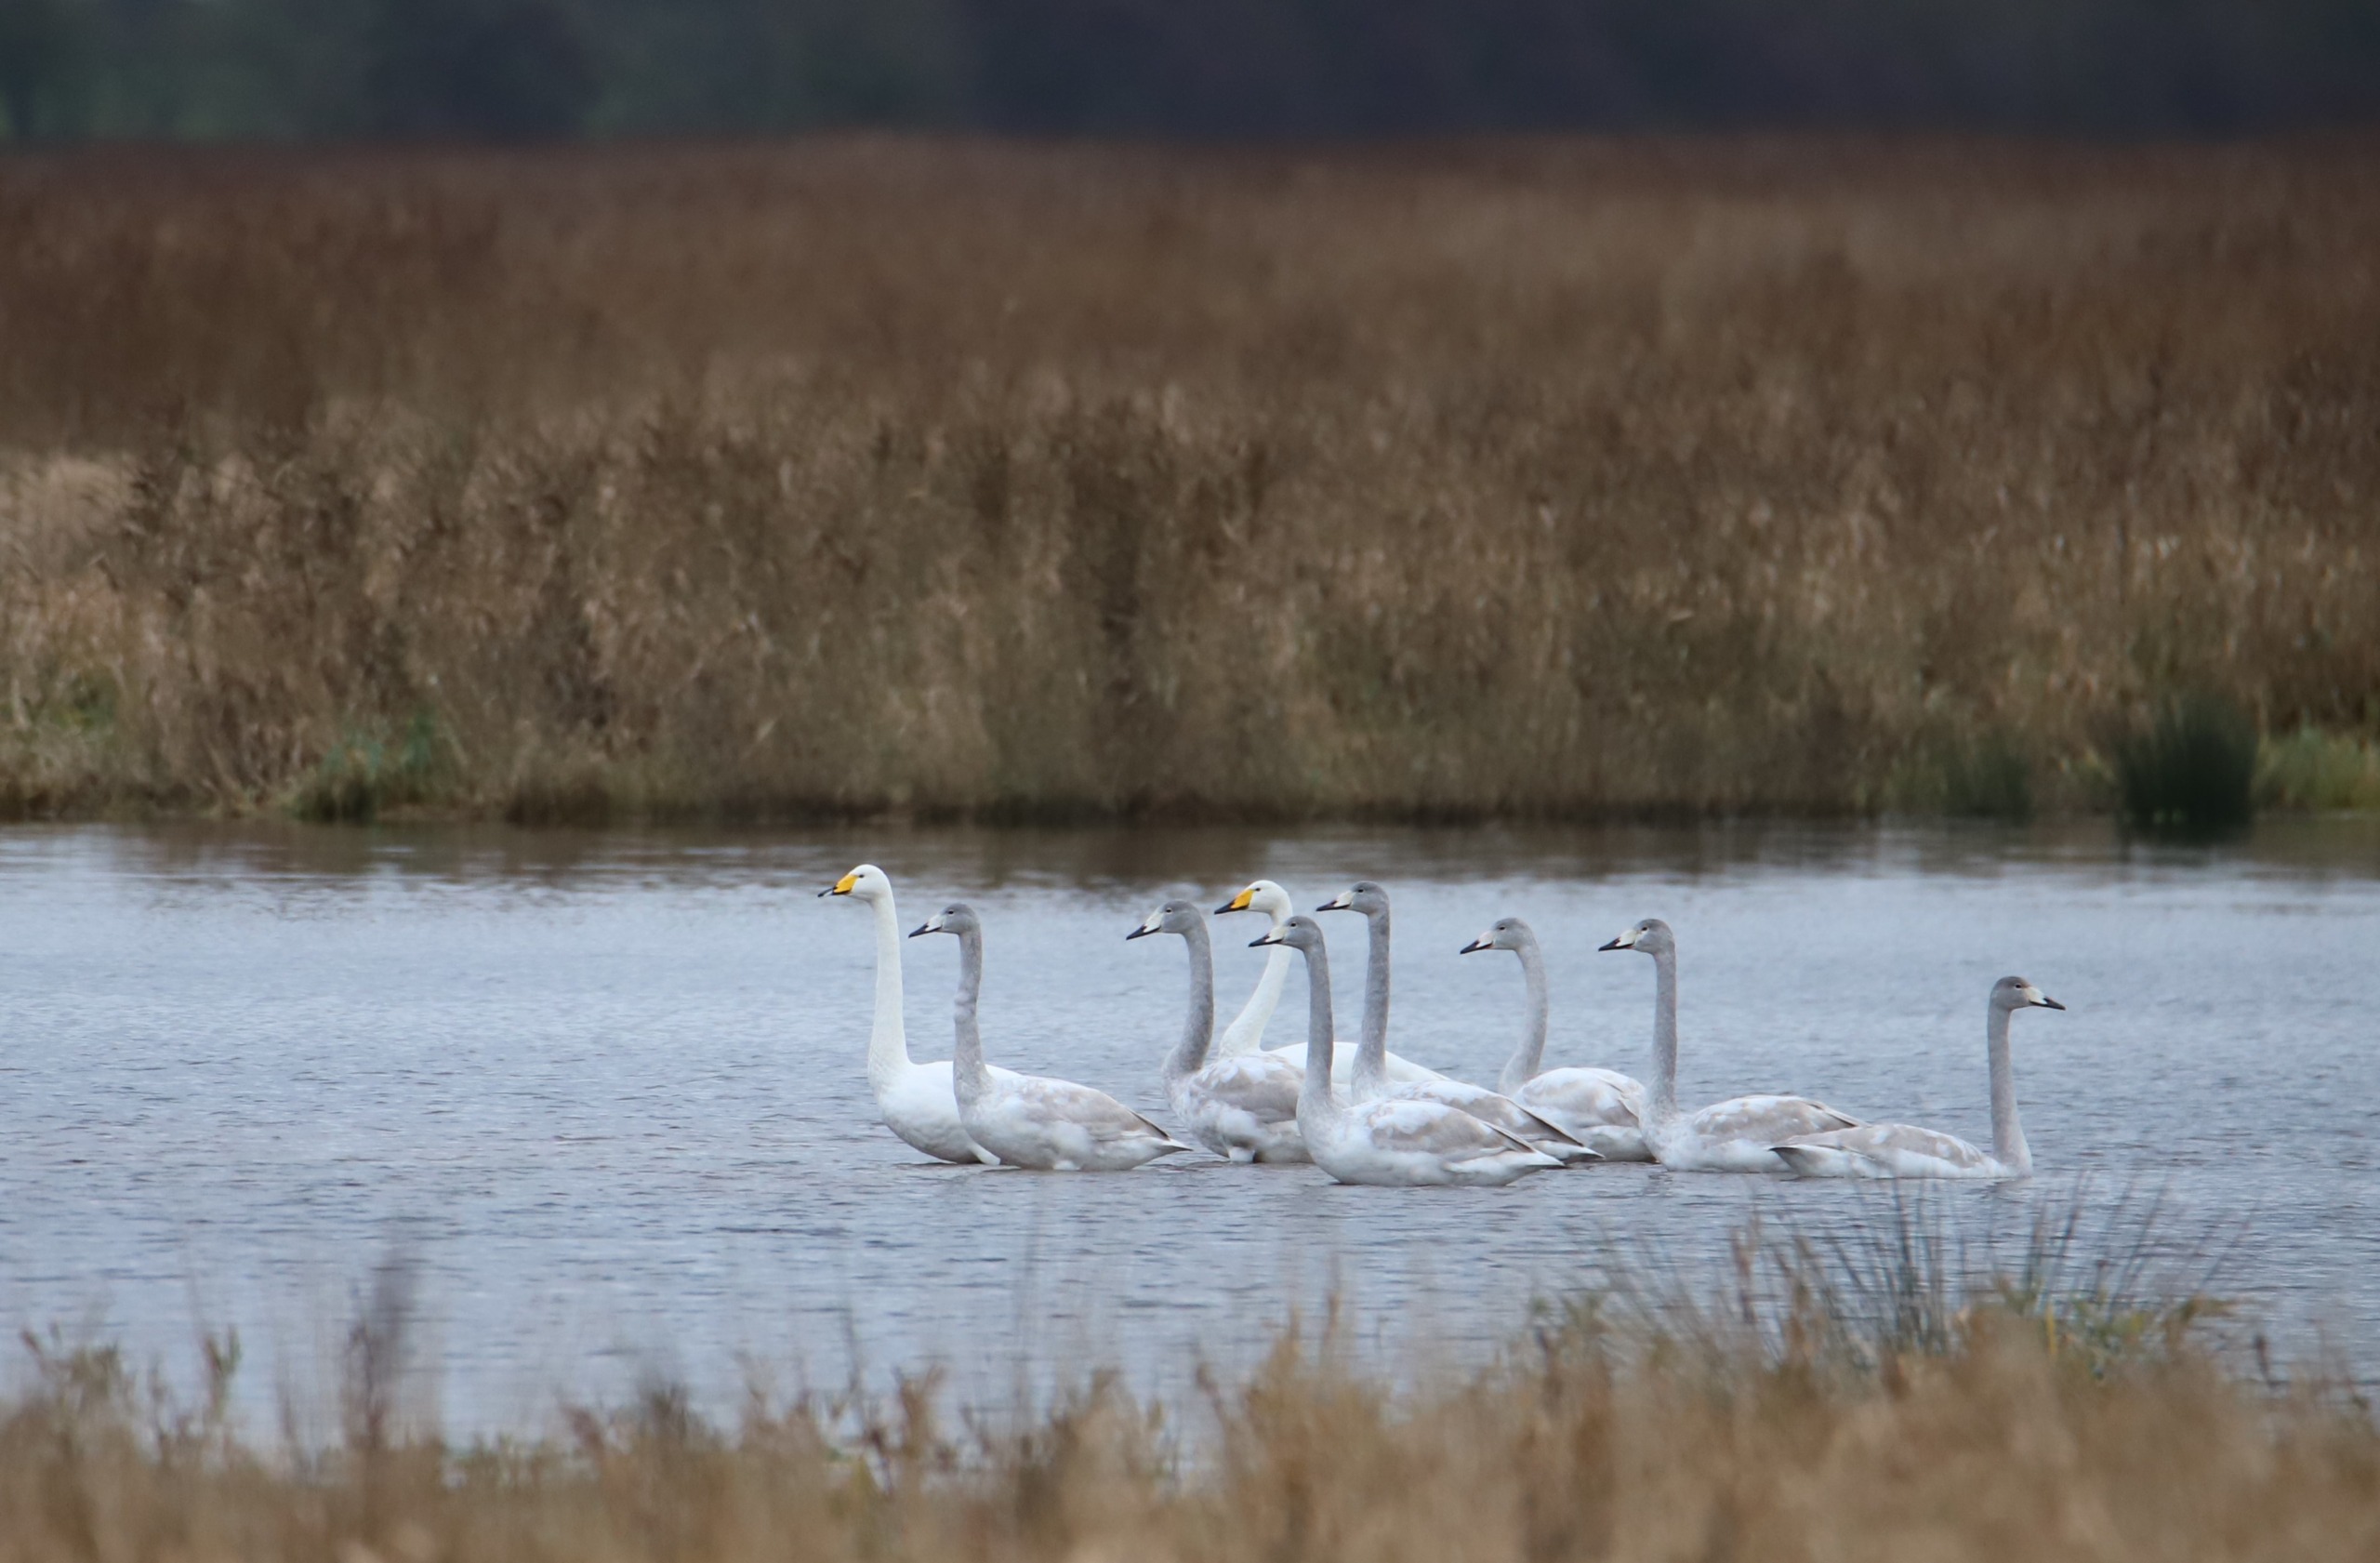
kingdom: Animalia
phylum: Chordata
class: Aves
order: Anseriformes
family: Anatidae
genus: Cygnus
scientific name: Cygnus cygnus
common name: Sangsvane
